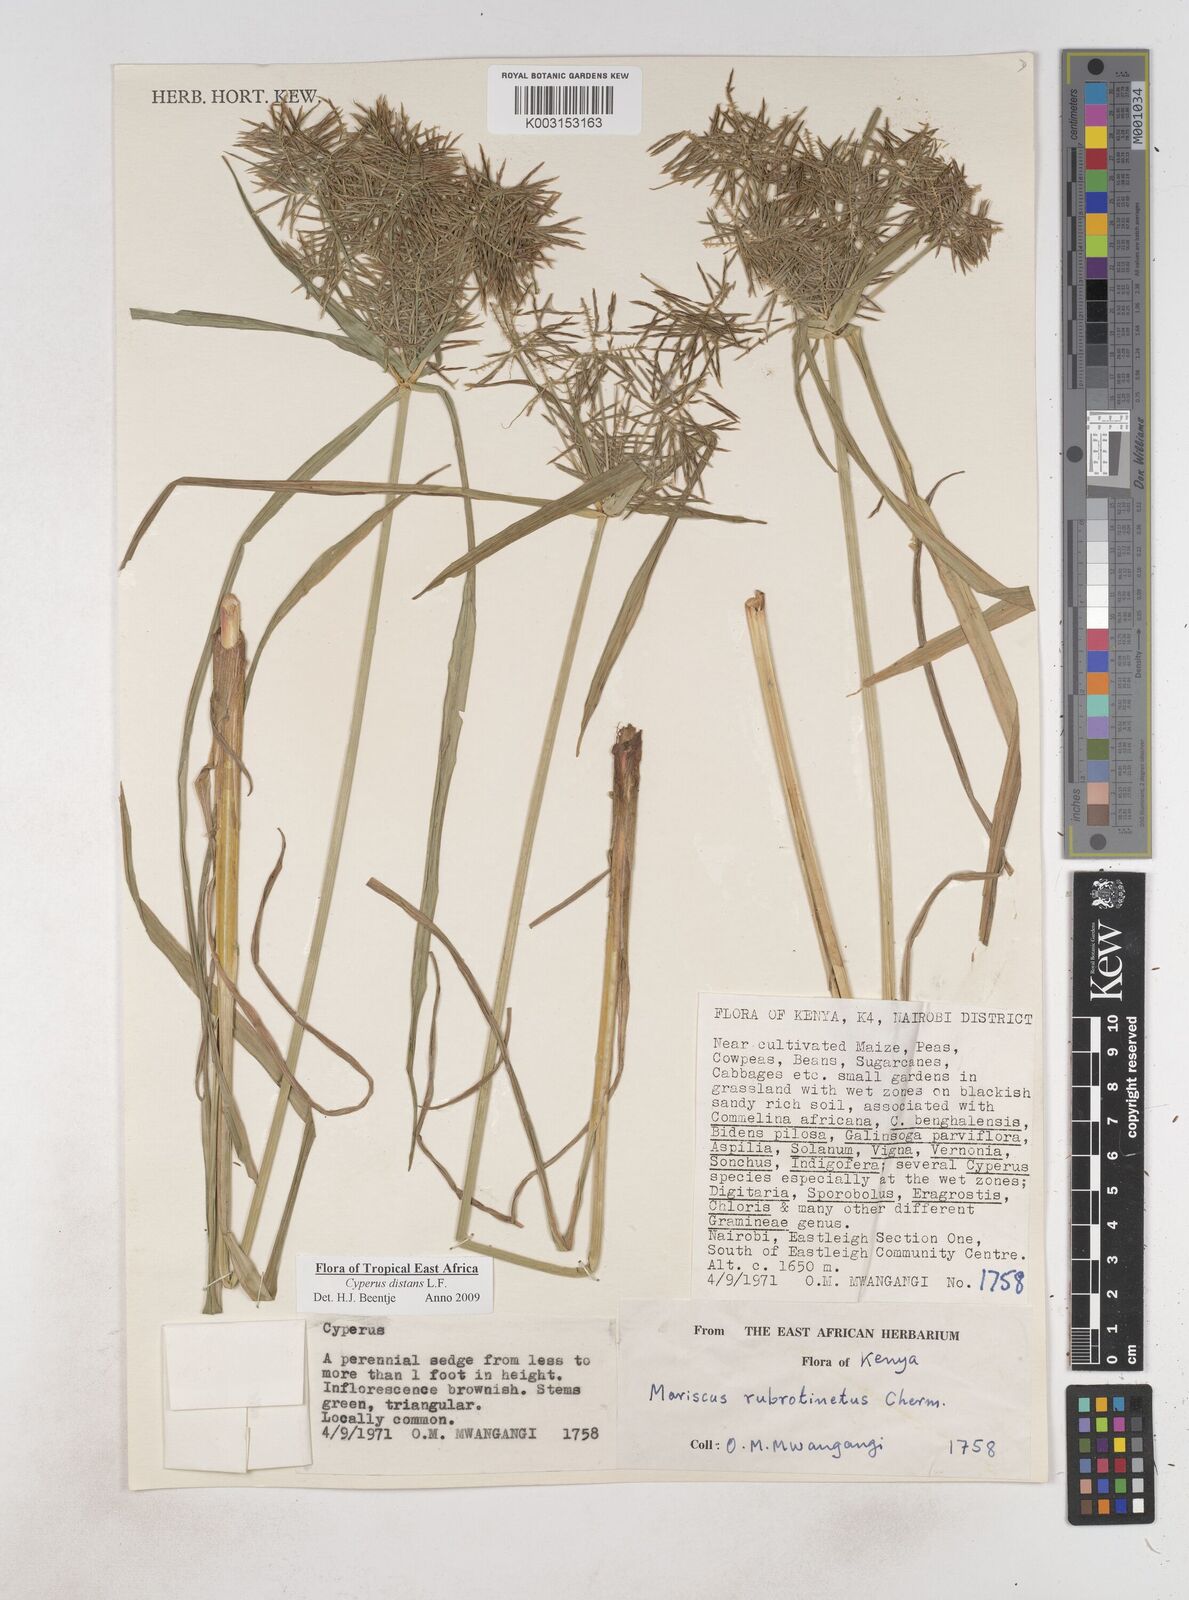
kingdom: Plantae
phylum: Tracheophyta
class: Liliopsida
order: Poales
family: Cyperaceae
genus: Cyperus
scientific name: Cyperus distans
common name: Slender cyperus
